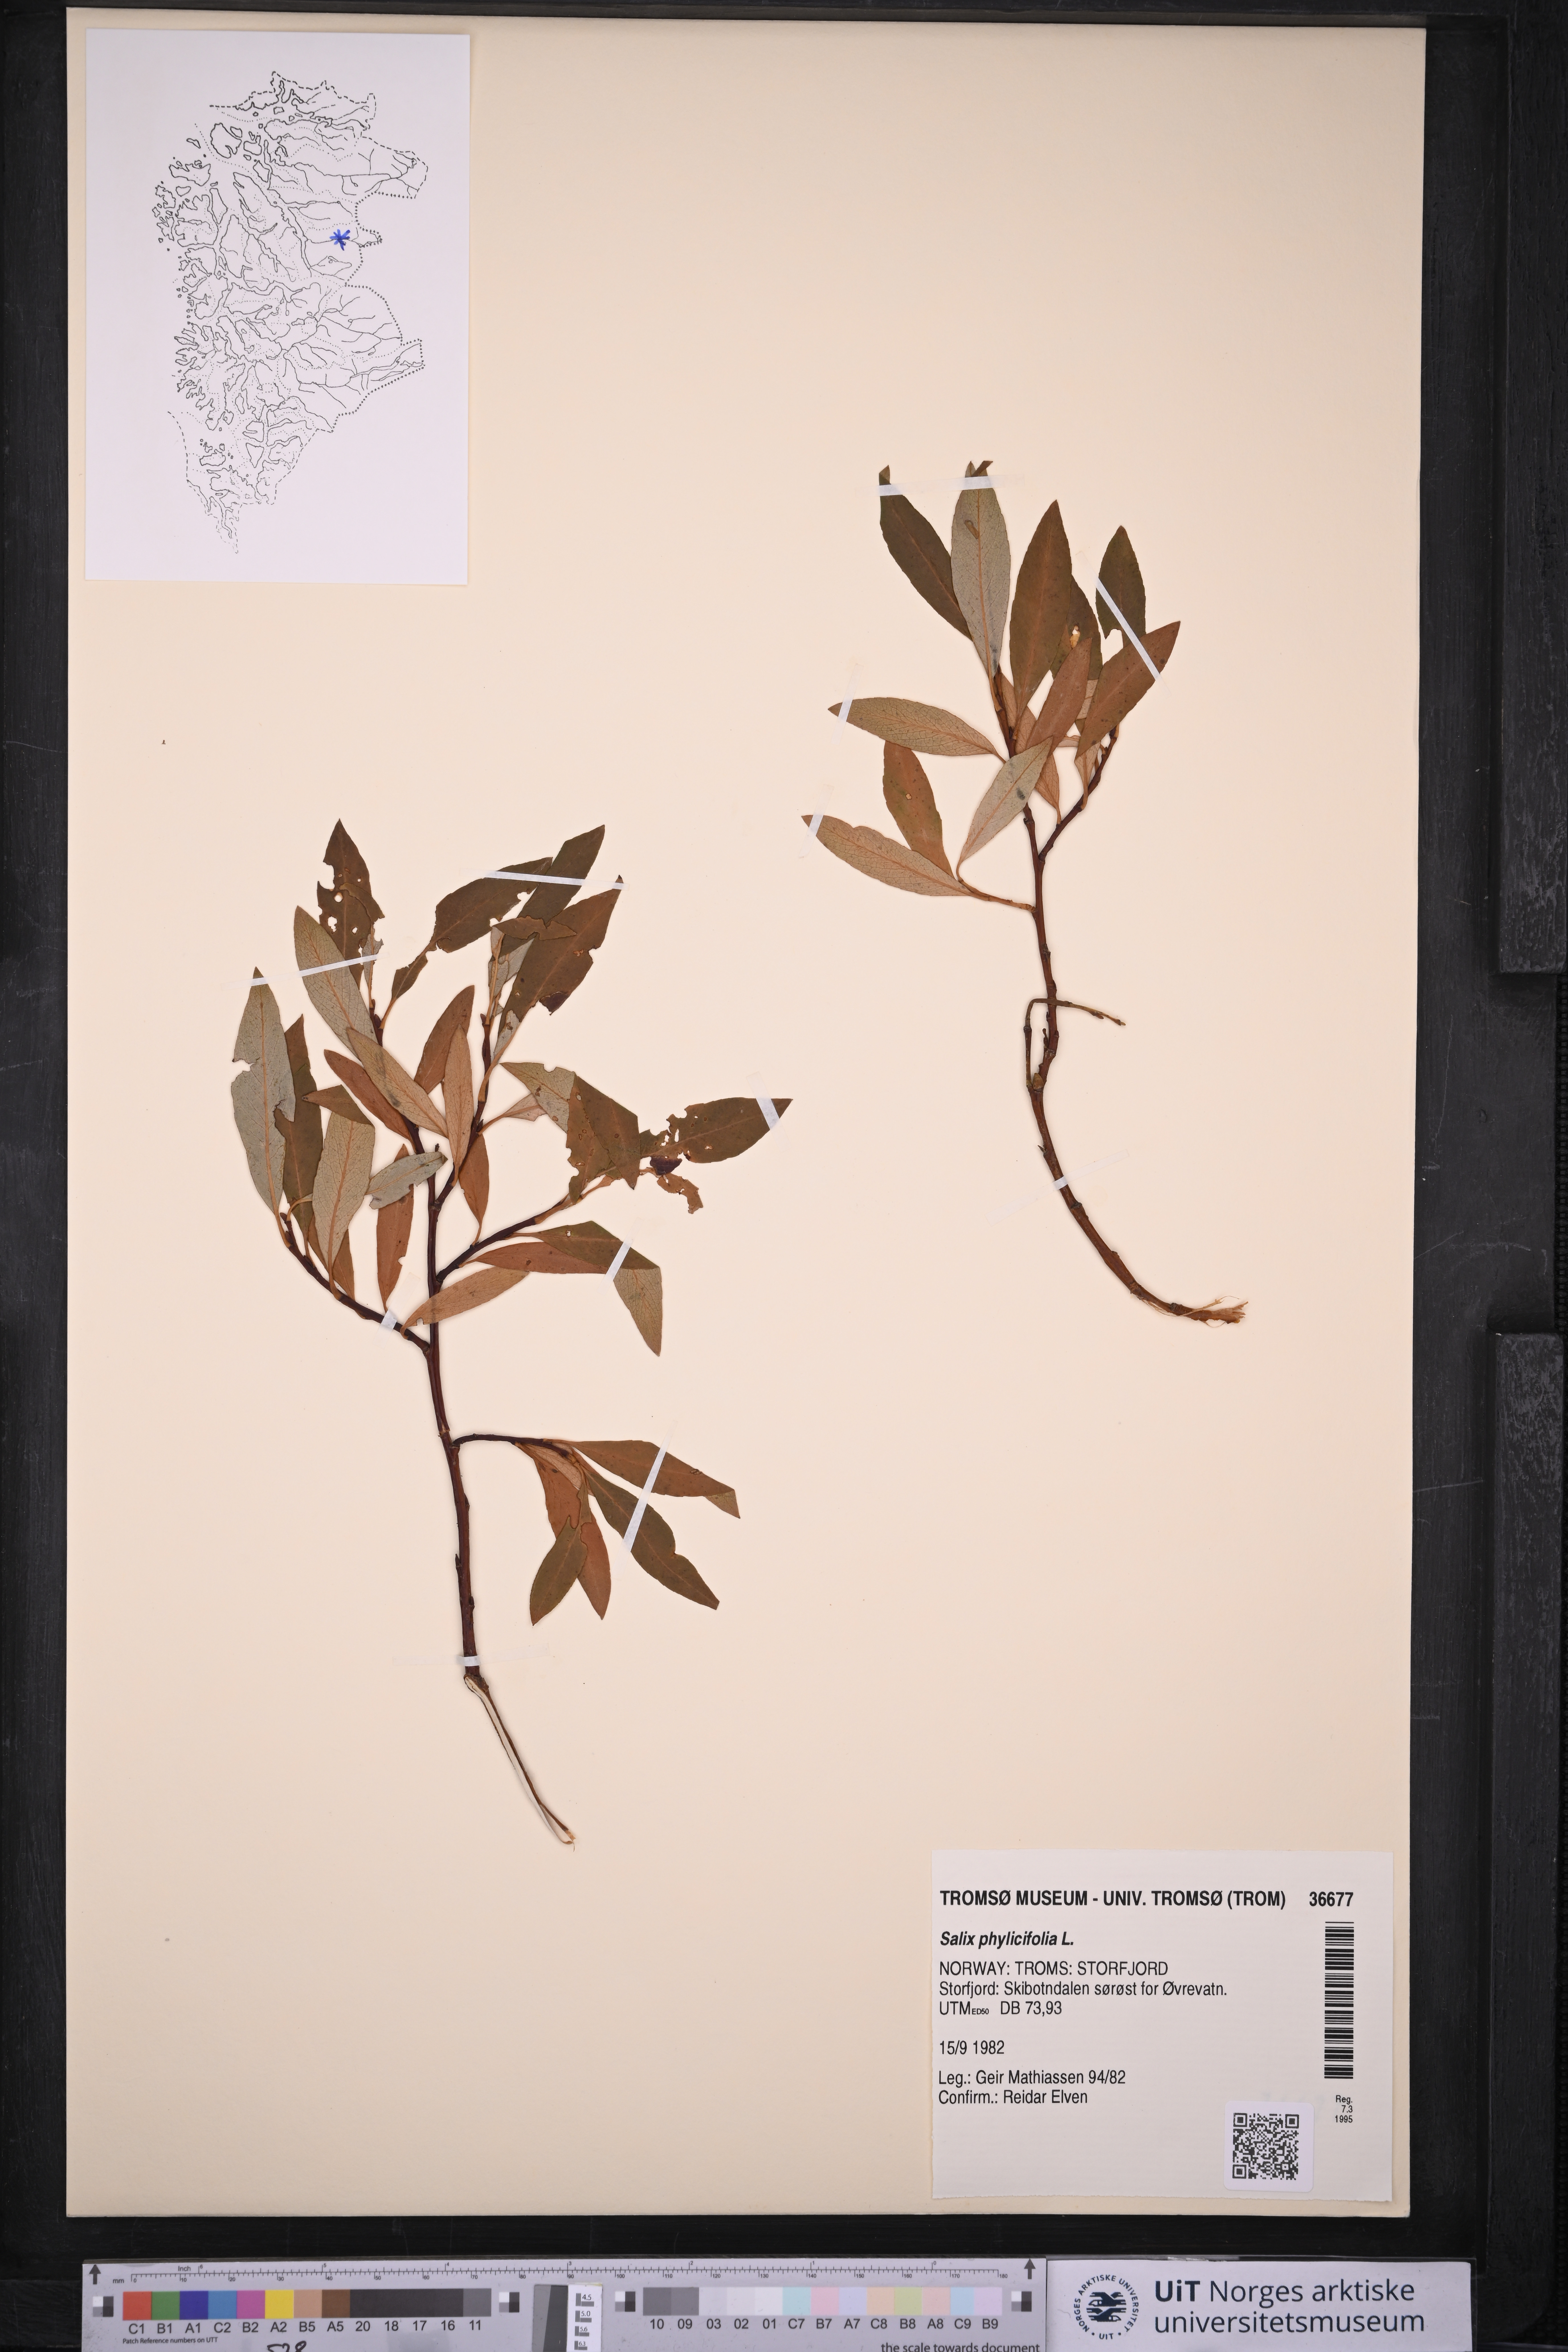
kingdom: Plantae
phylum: Tracheophyta
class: Magnoliopsida
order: Malpighiales
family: Salicaceae
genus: Salix
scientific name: Salix phylicifolia
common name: Tea-leaved willow
